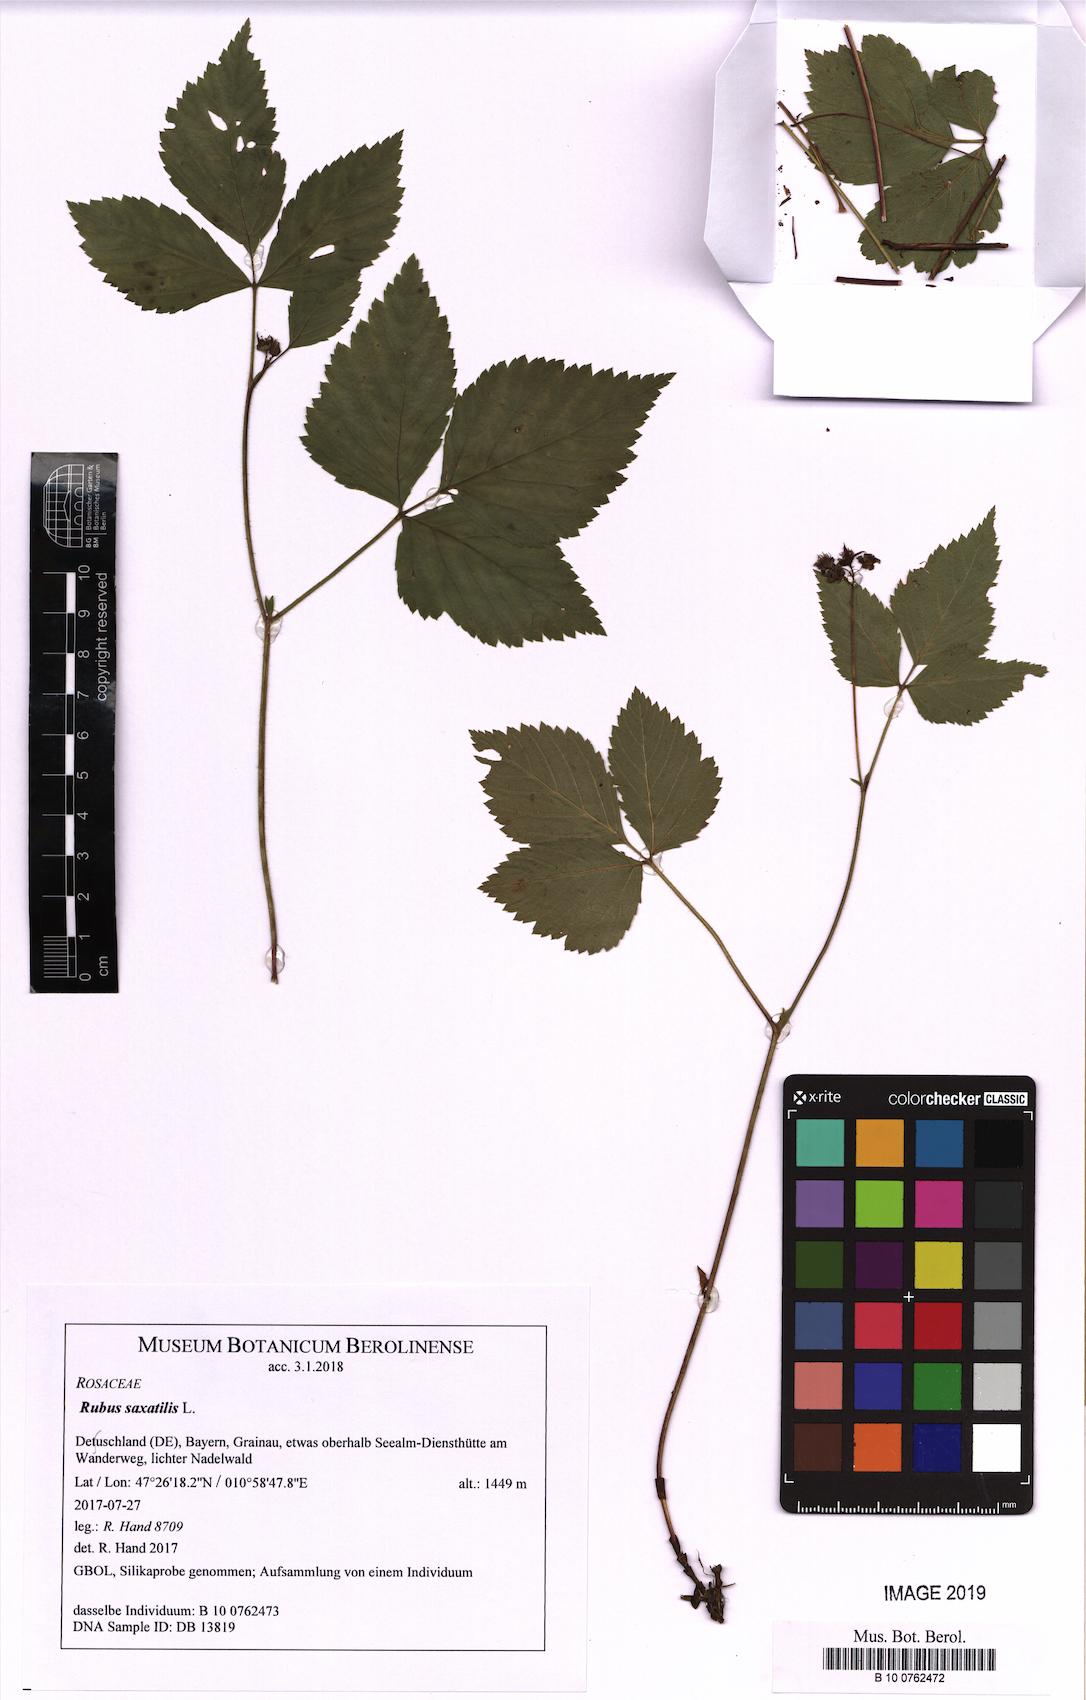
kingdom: Plantae
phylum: Tracheophyta
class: Magnoliopsida
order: Rosales
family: Rosaceae
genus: Rubus
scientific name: Rubus saxatilis
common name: Stone bramble
